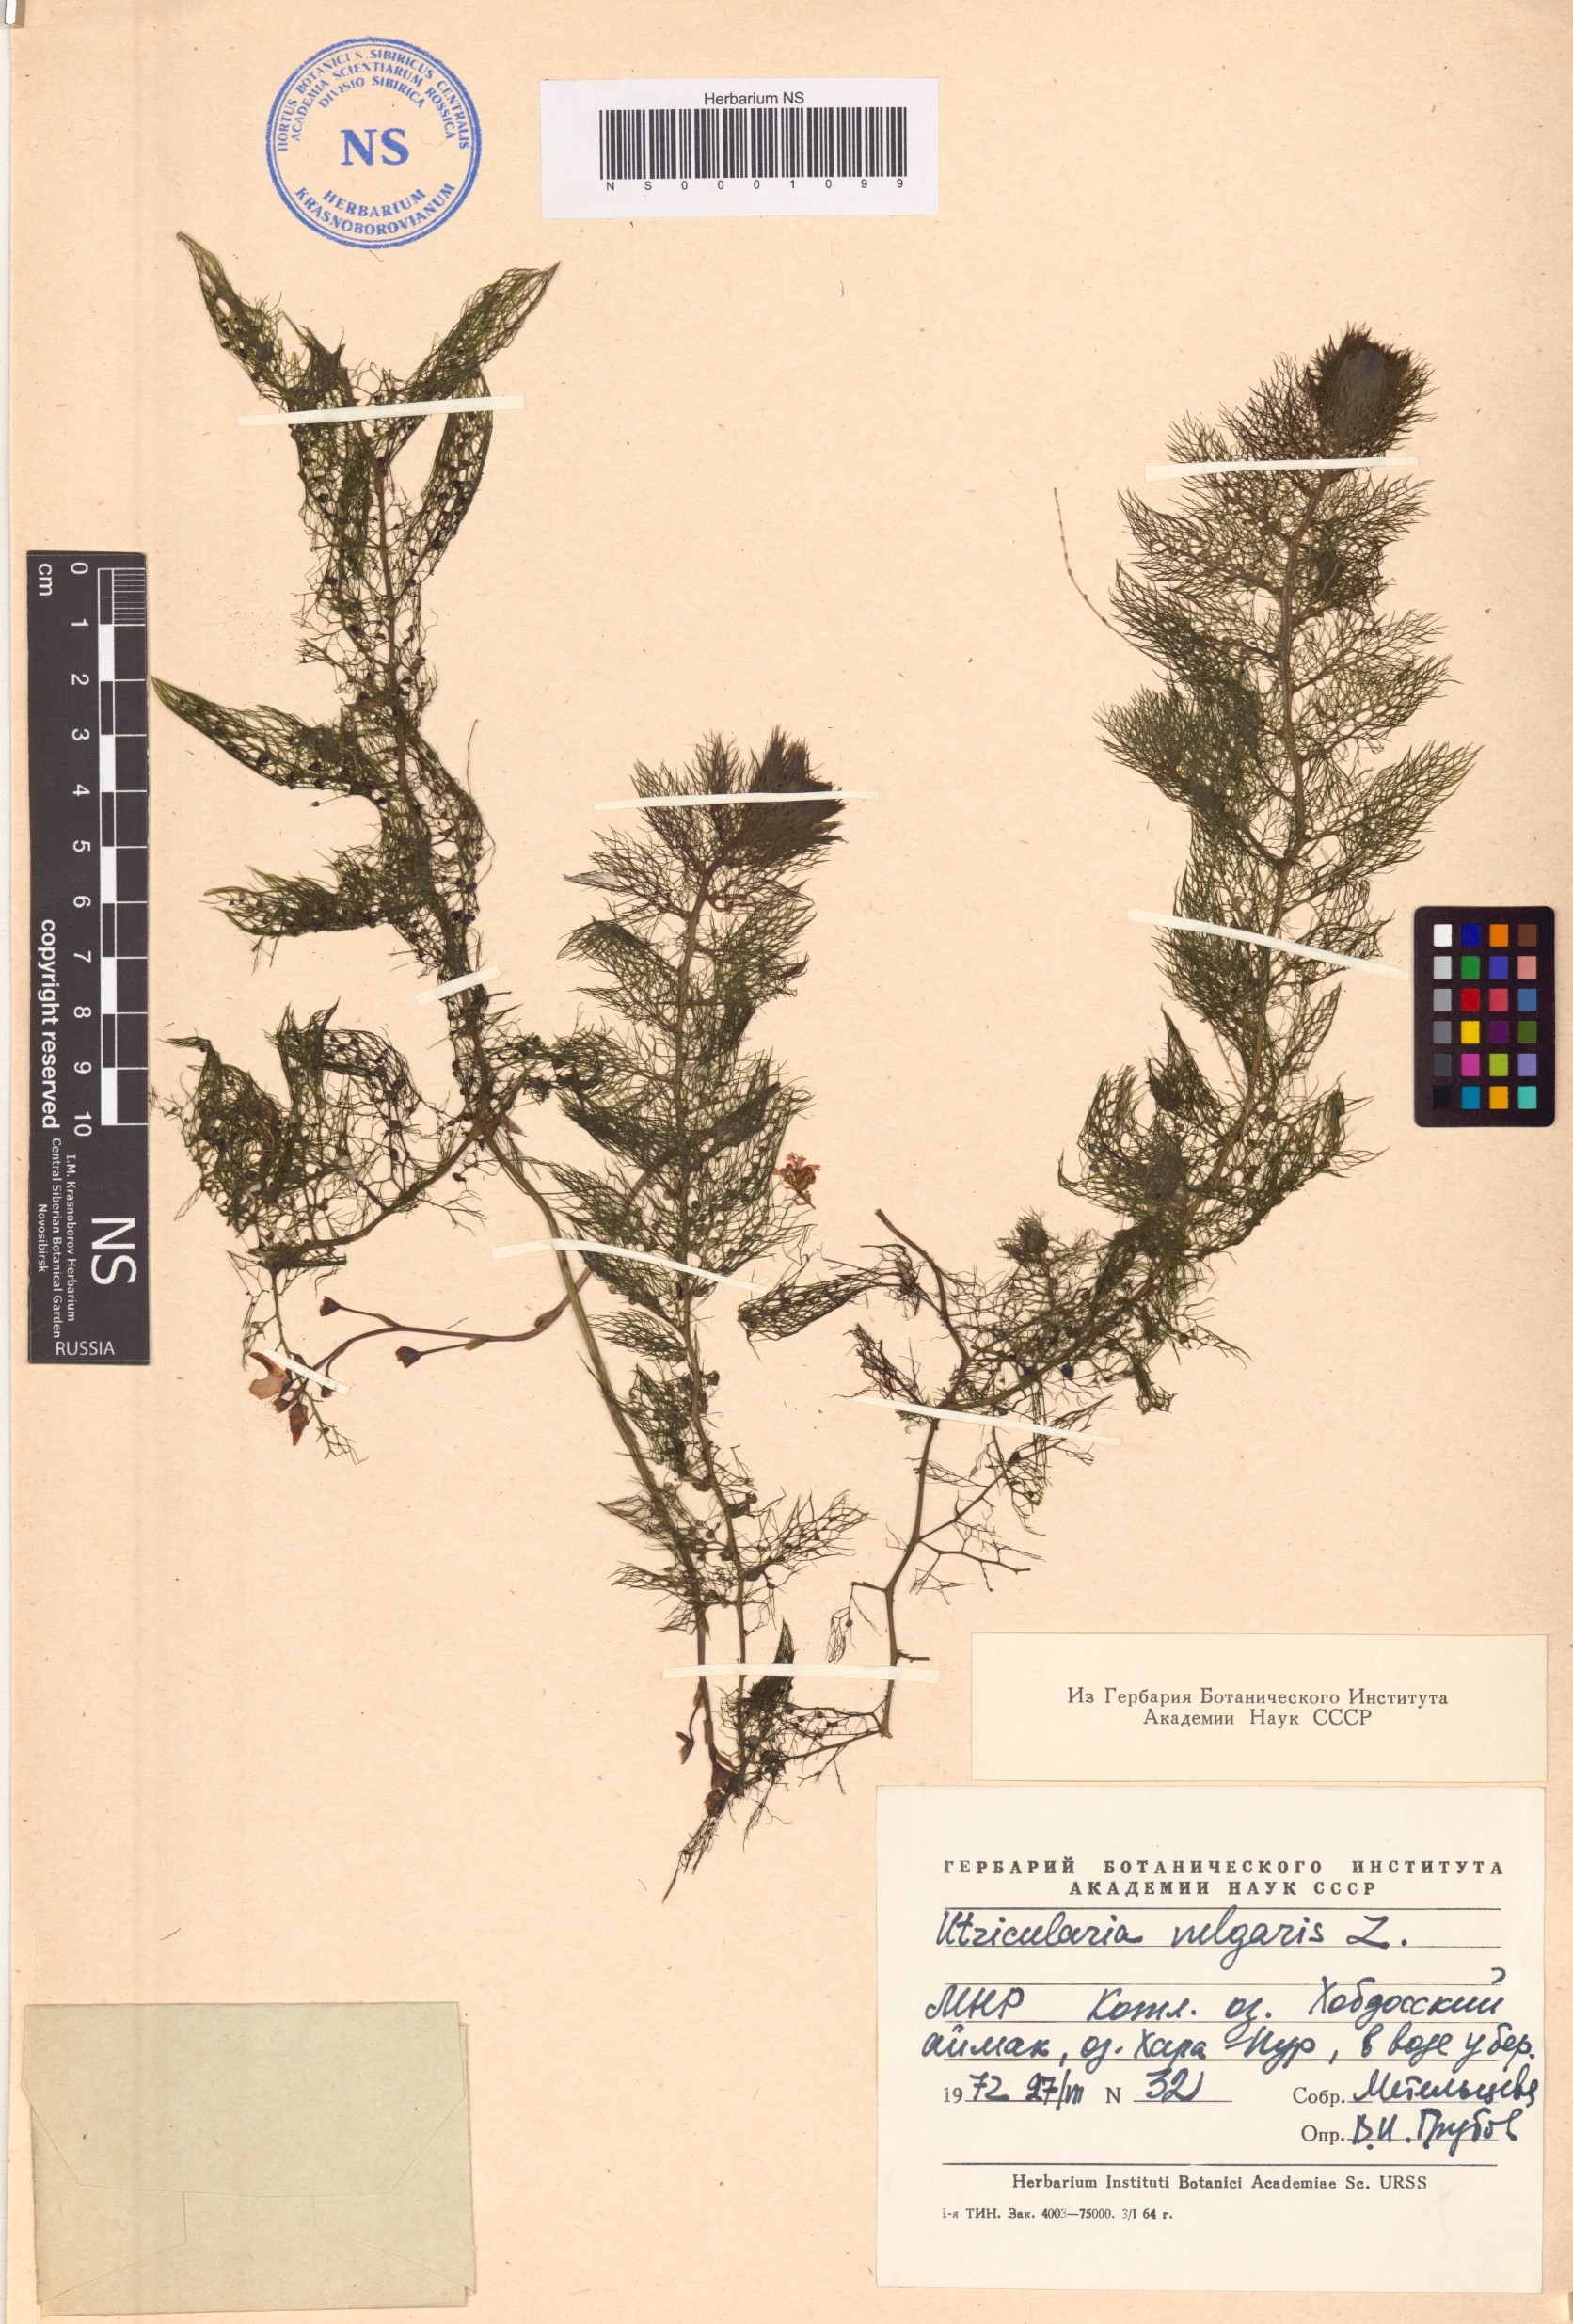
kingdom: Plantae
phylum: Tracheophyta
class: Magnoliopsida
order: Lamiales
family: Lentibulariaceae
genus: Utricularia
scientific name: Utricularia vulgaris
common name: Greater bladderwort
